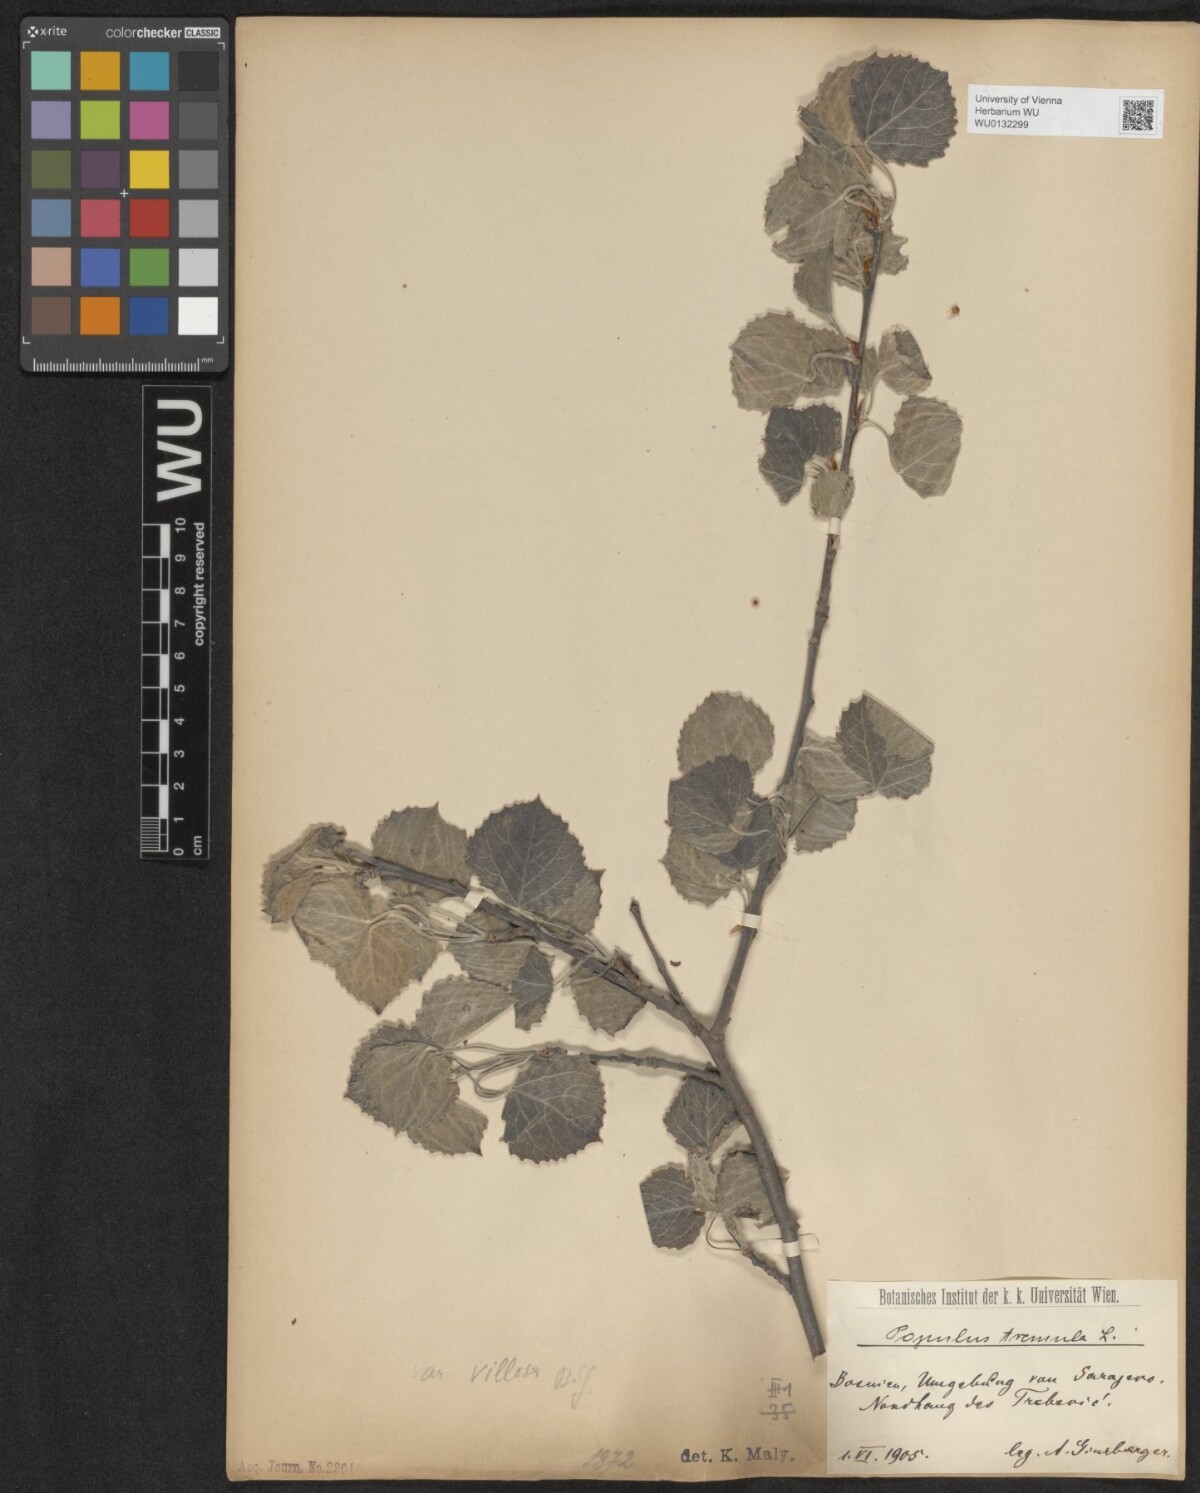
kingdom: Plantae
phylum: Tracheophyta
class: Magnoliopsida
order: Malpighiales
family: Salicaceae
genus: Populus
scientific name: Populus tremula
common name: European aspen
